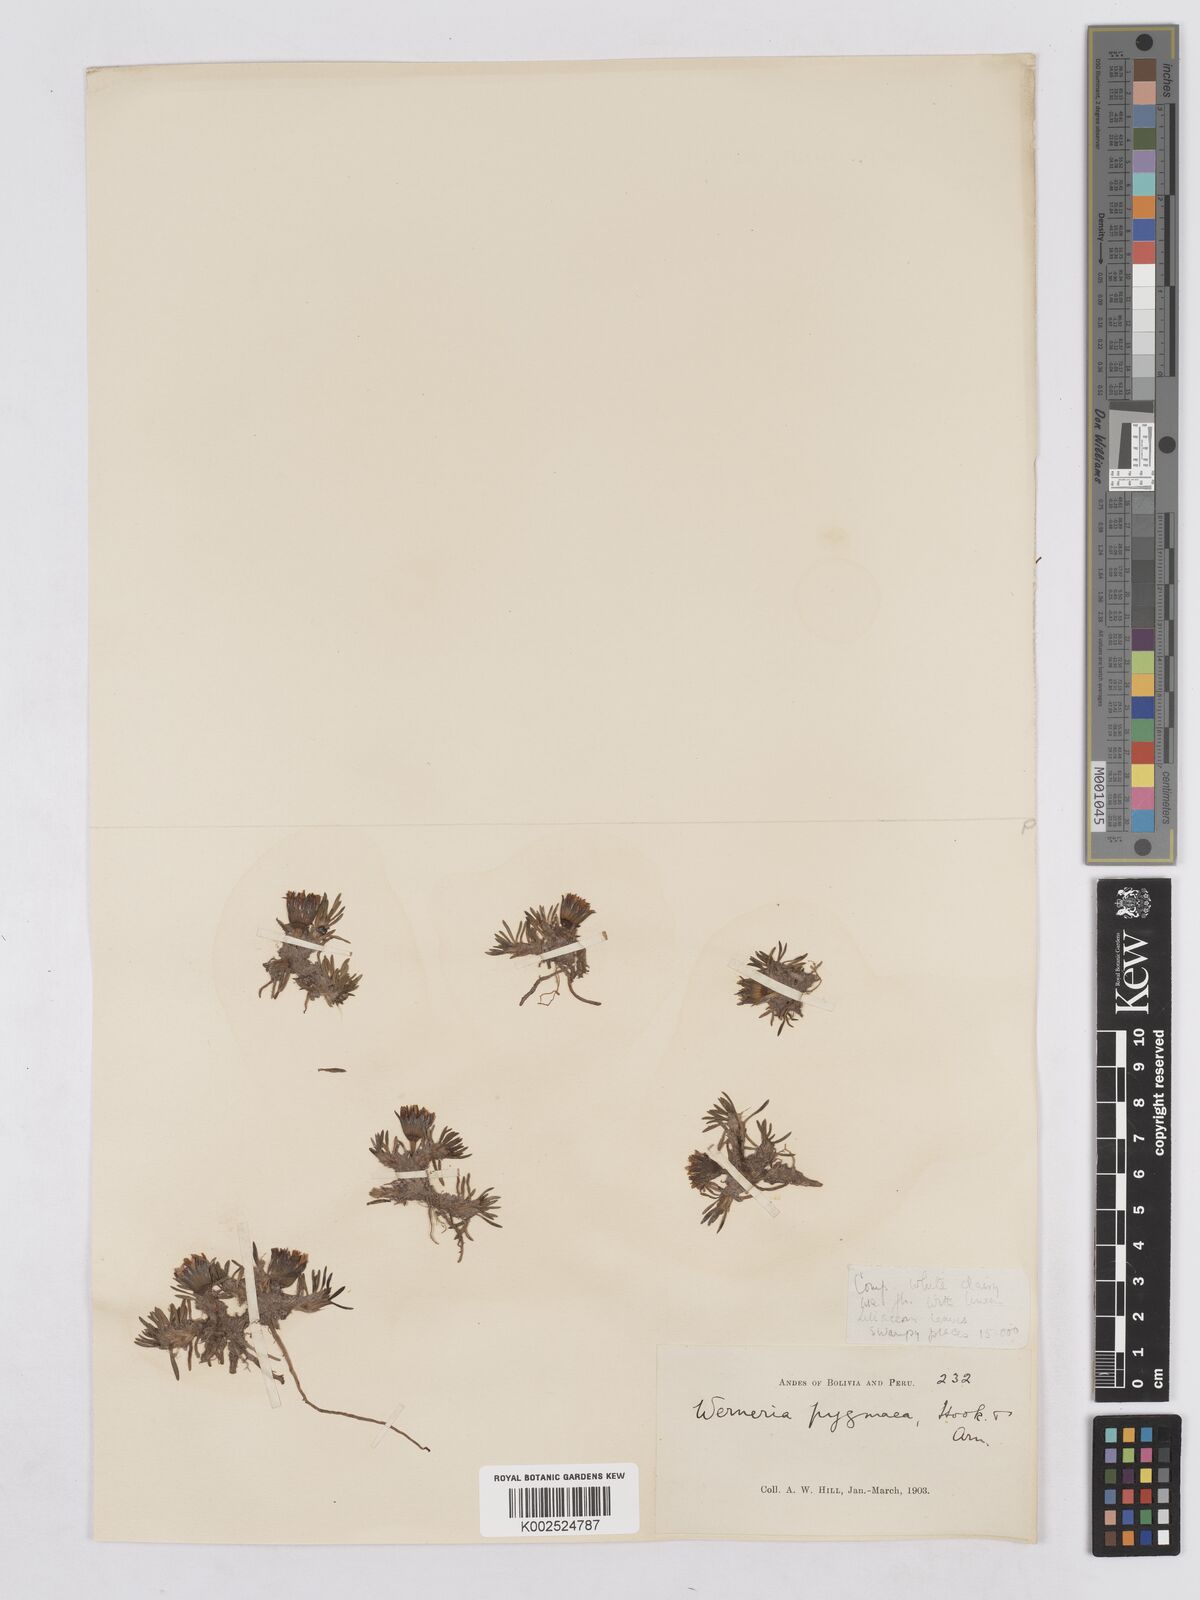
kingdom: Plantae
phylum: Tracheophyta
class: Magnoliopsida
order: Asterales
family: Asteraceae
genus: Rockhausenia
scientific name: Rockhausenia pygmaea
